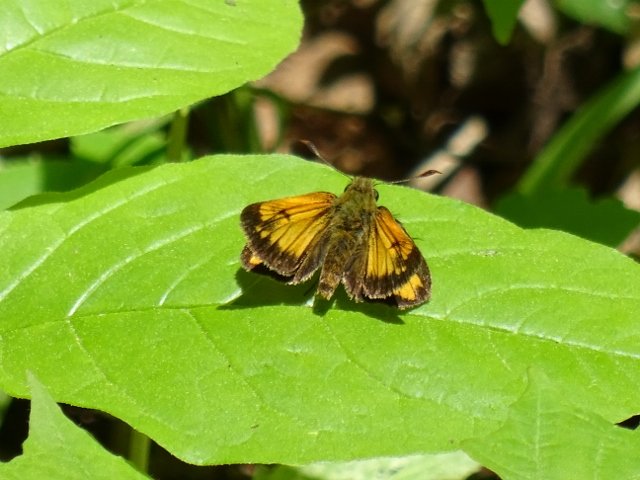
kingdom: Animalia
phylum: Arthropoda
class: Insecta
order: Lepidoptera
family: Hesperiidae
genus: Lon
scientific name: Lon hobomok
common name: Hobomok Skipper
